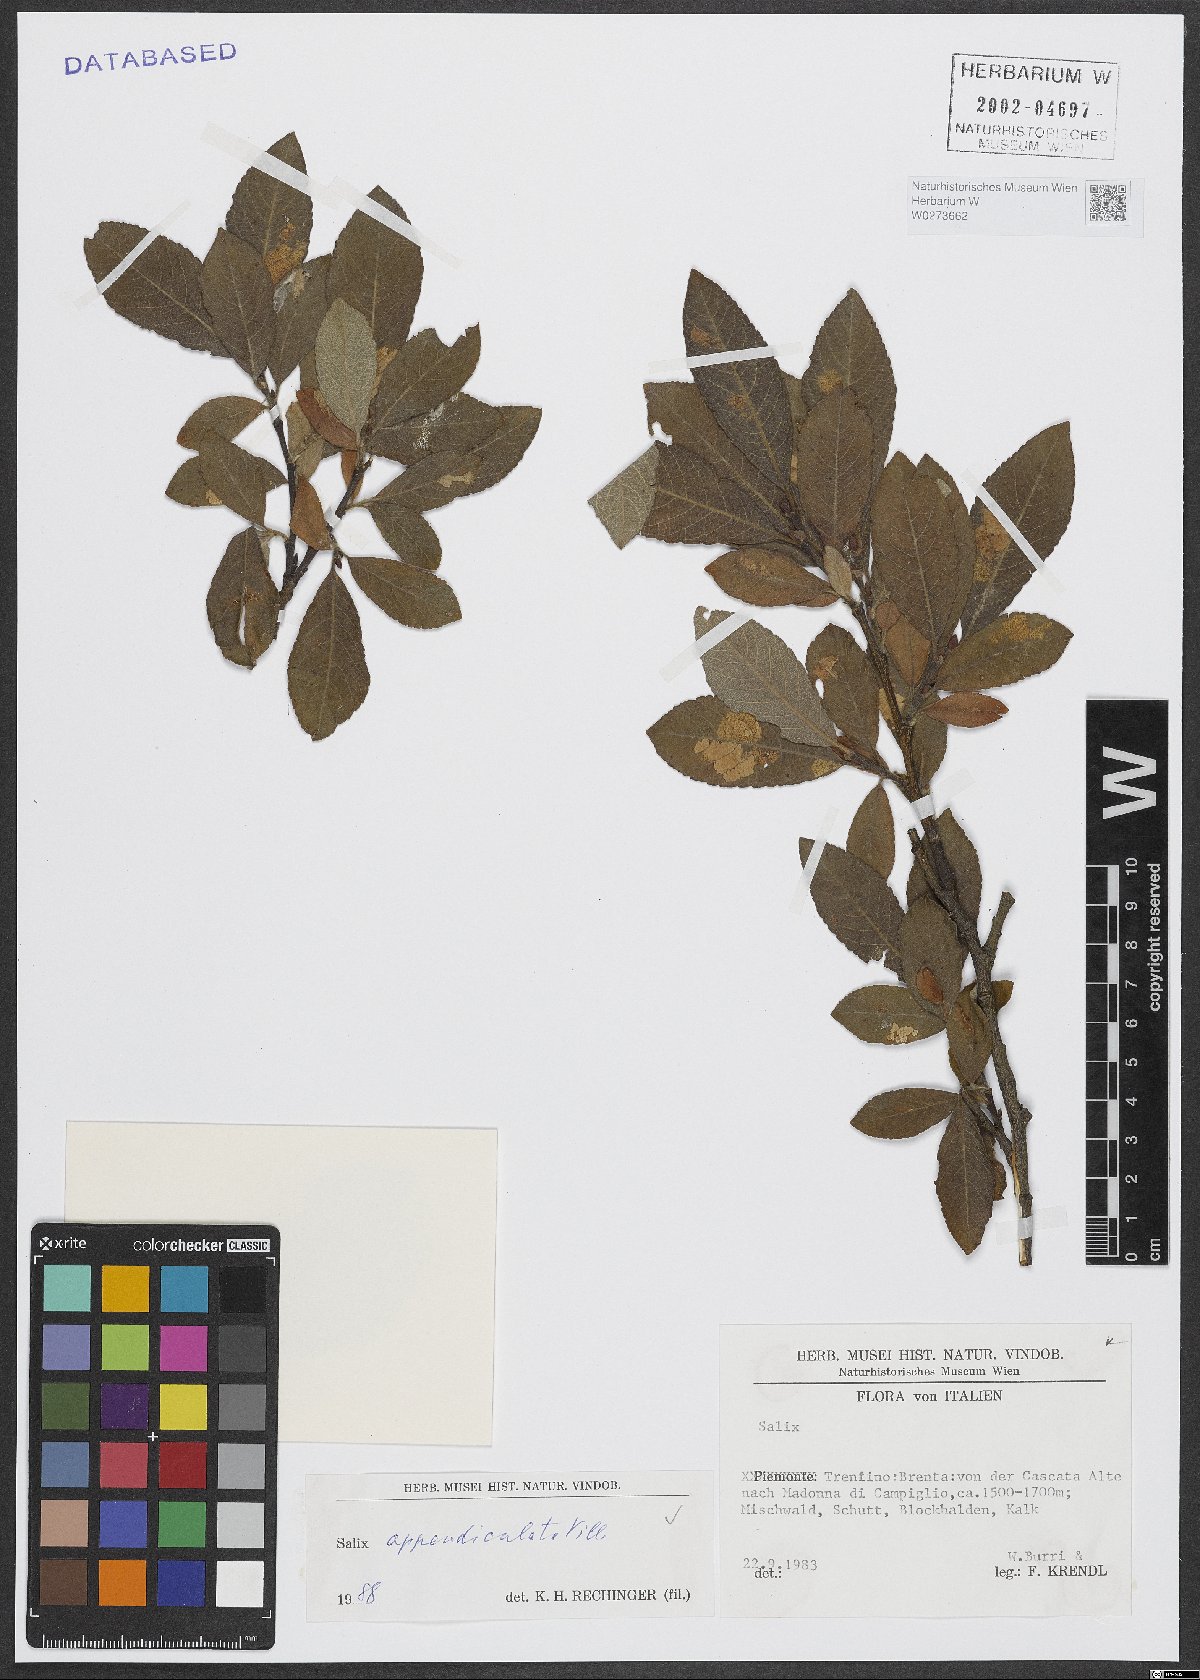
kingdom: Plantae
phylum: Tracheophyta
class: Magnoliopsida
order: Malpighiales
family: Salicaceae
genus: Salix
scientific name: Salix appendiculata
